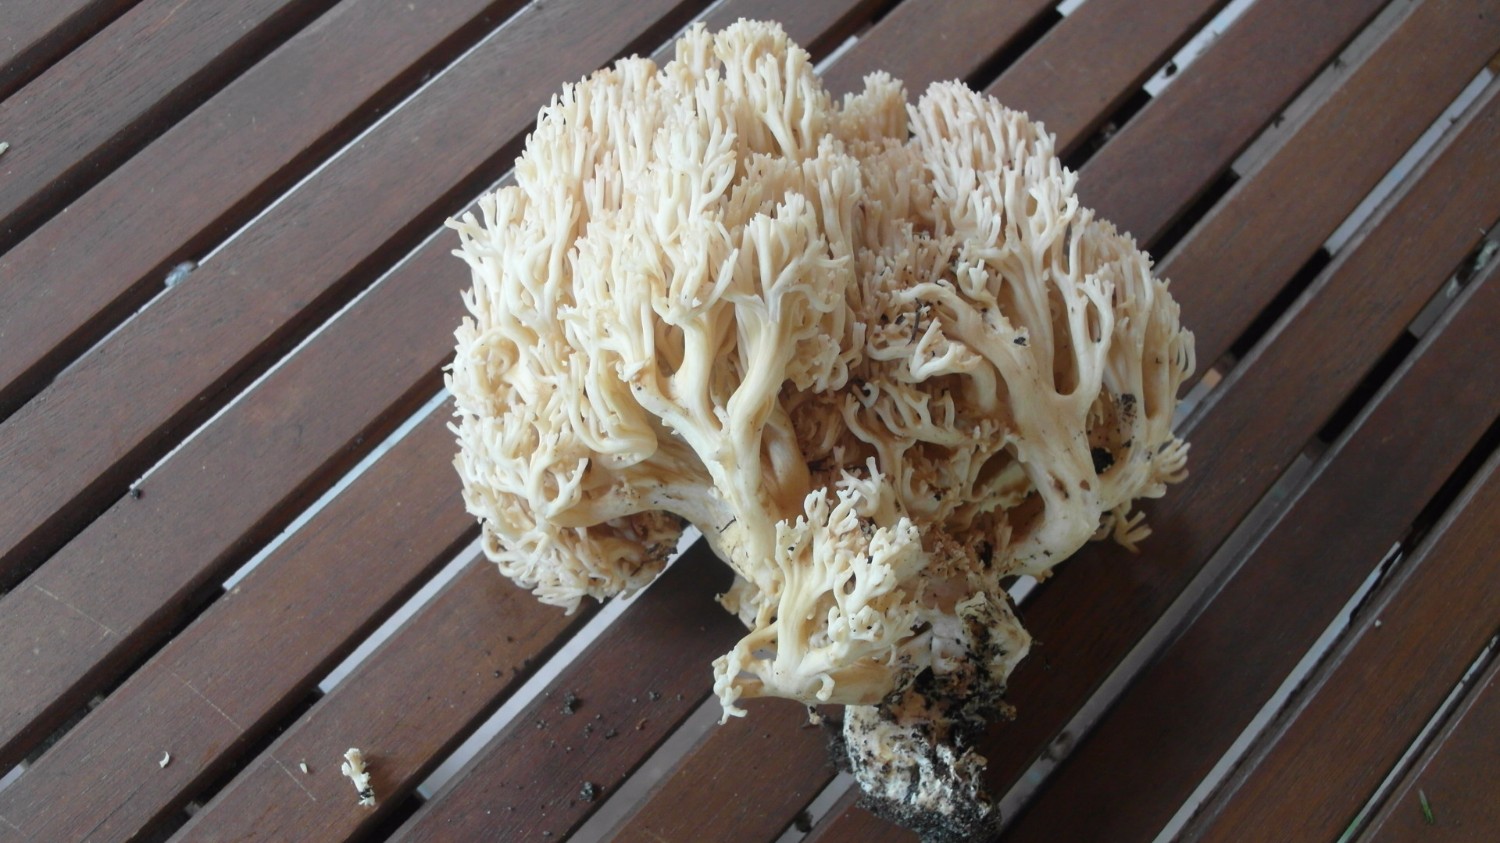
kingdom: Fungi
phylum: Basidiomycota
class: Agaricomycetes
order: Gomphales
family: Gomphaceae
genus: Ramaria
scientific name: Ramaria botrytis
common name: drue-koralsvamp
